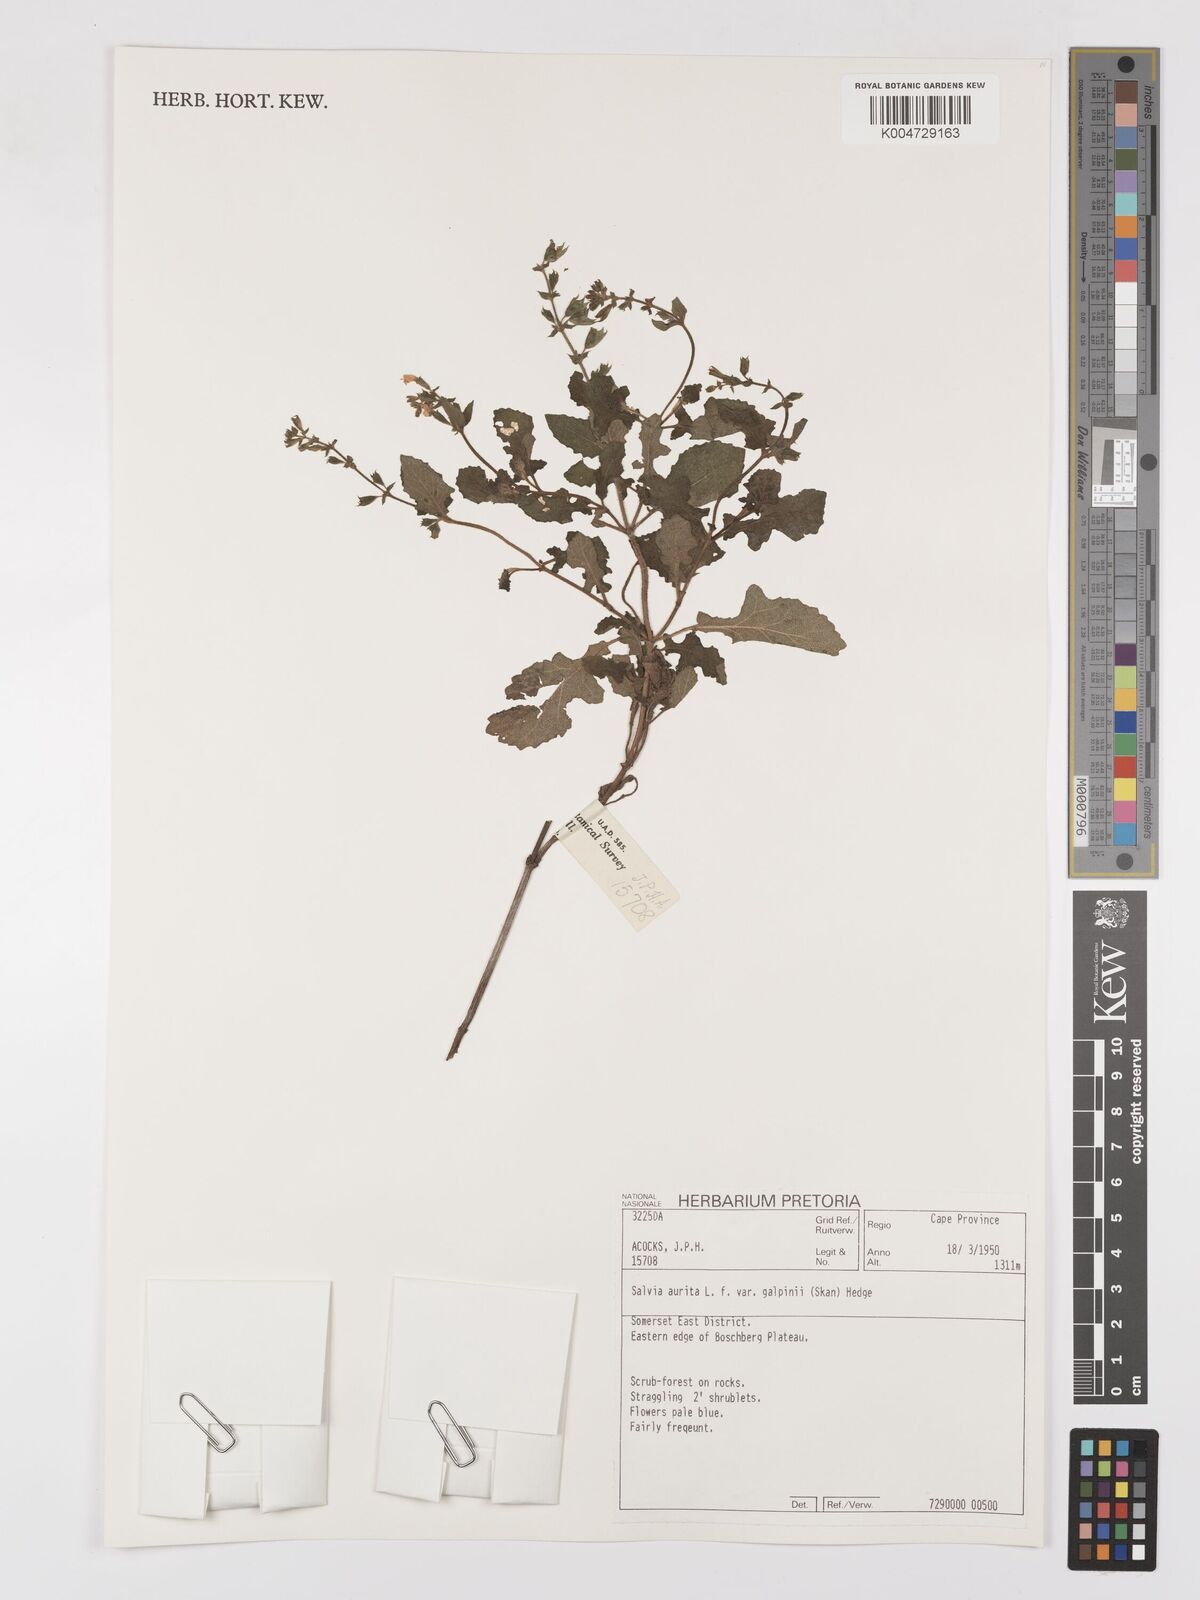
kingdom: Plantae
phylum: Tracheophyta
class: Magnoliopsida
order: Lamiales
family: Lamiaceae
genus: Salvia
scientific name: Salvia aurita
